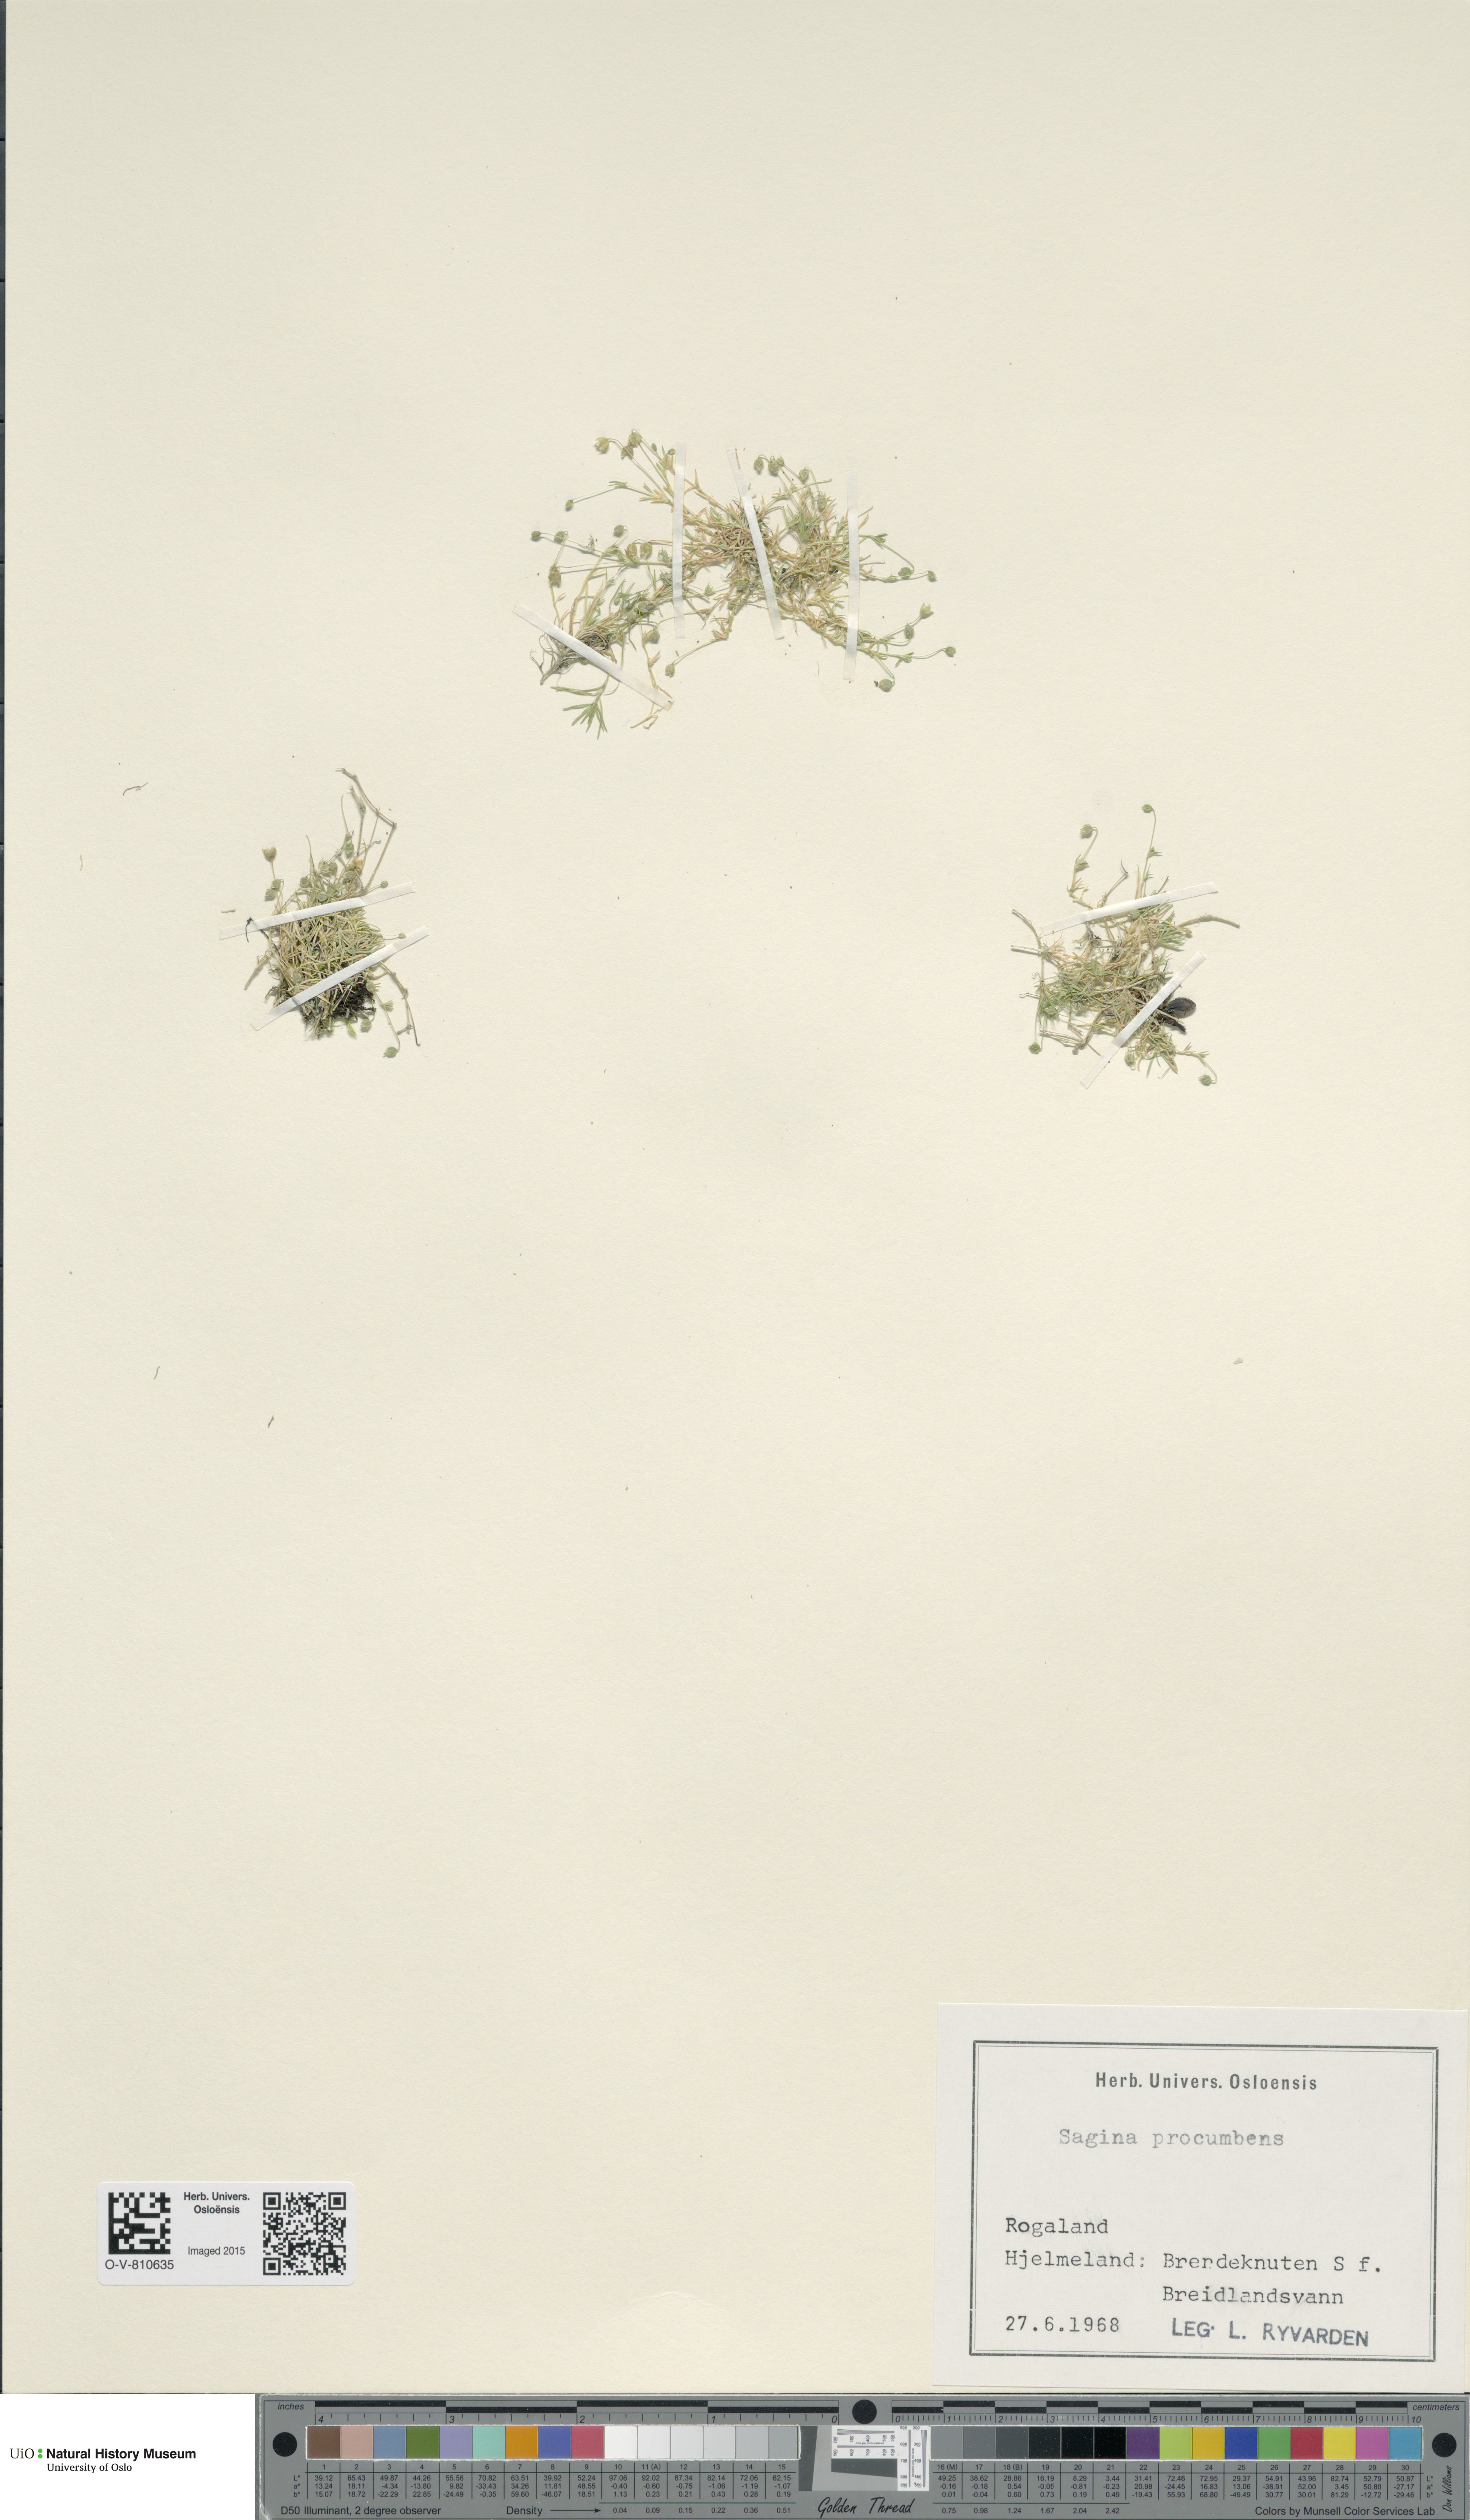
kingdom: Plantae
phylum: Tracheophyta
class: Magnoliopsida
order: Caryophyllales
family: Caryophyllaceae
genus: Sagina
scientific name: Sagina procumbens
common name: Procumbent pearlwort
